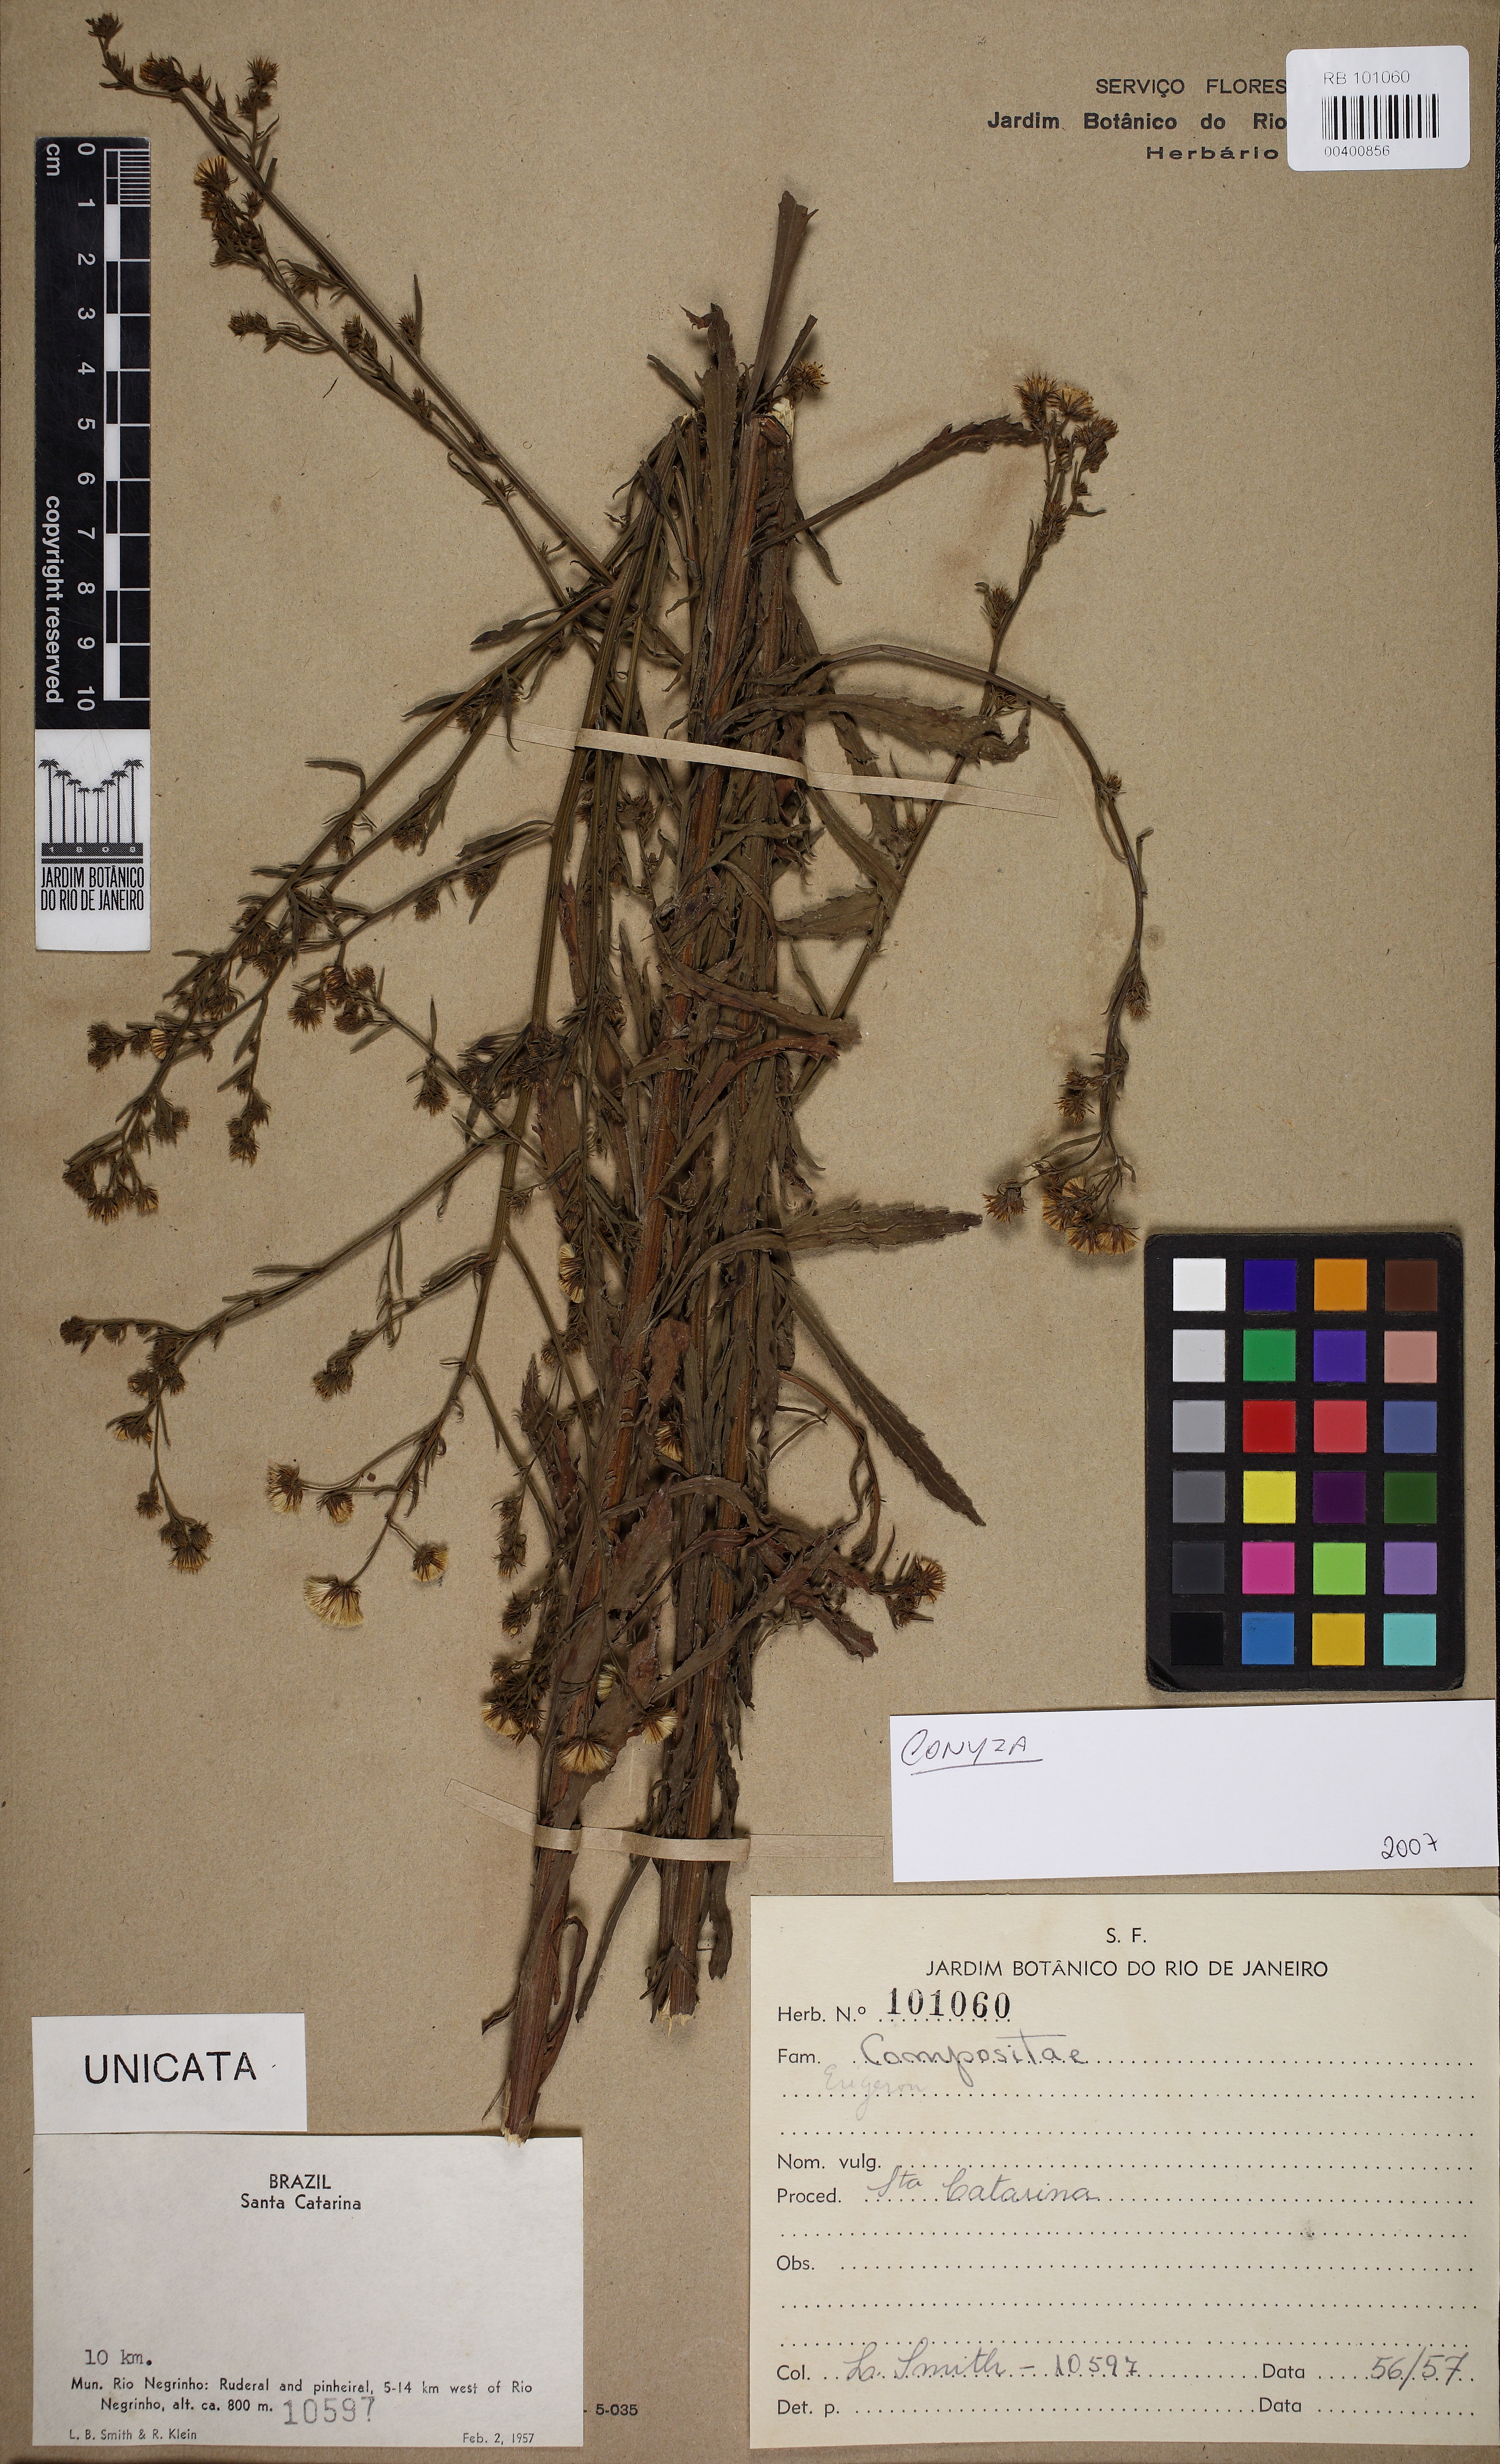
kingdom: Plantae
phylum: Tracheophyta
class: Magnoliopsida
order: Asterales
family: Asteraceae
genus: Conyza
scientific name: Conyza
